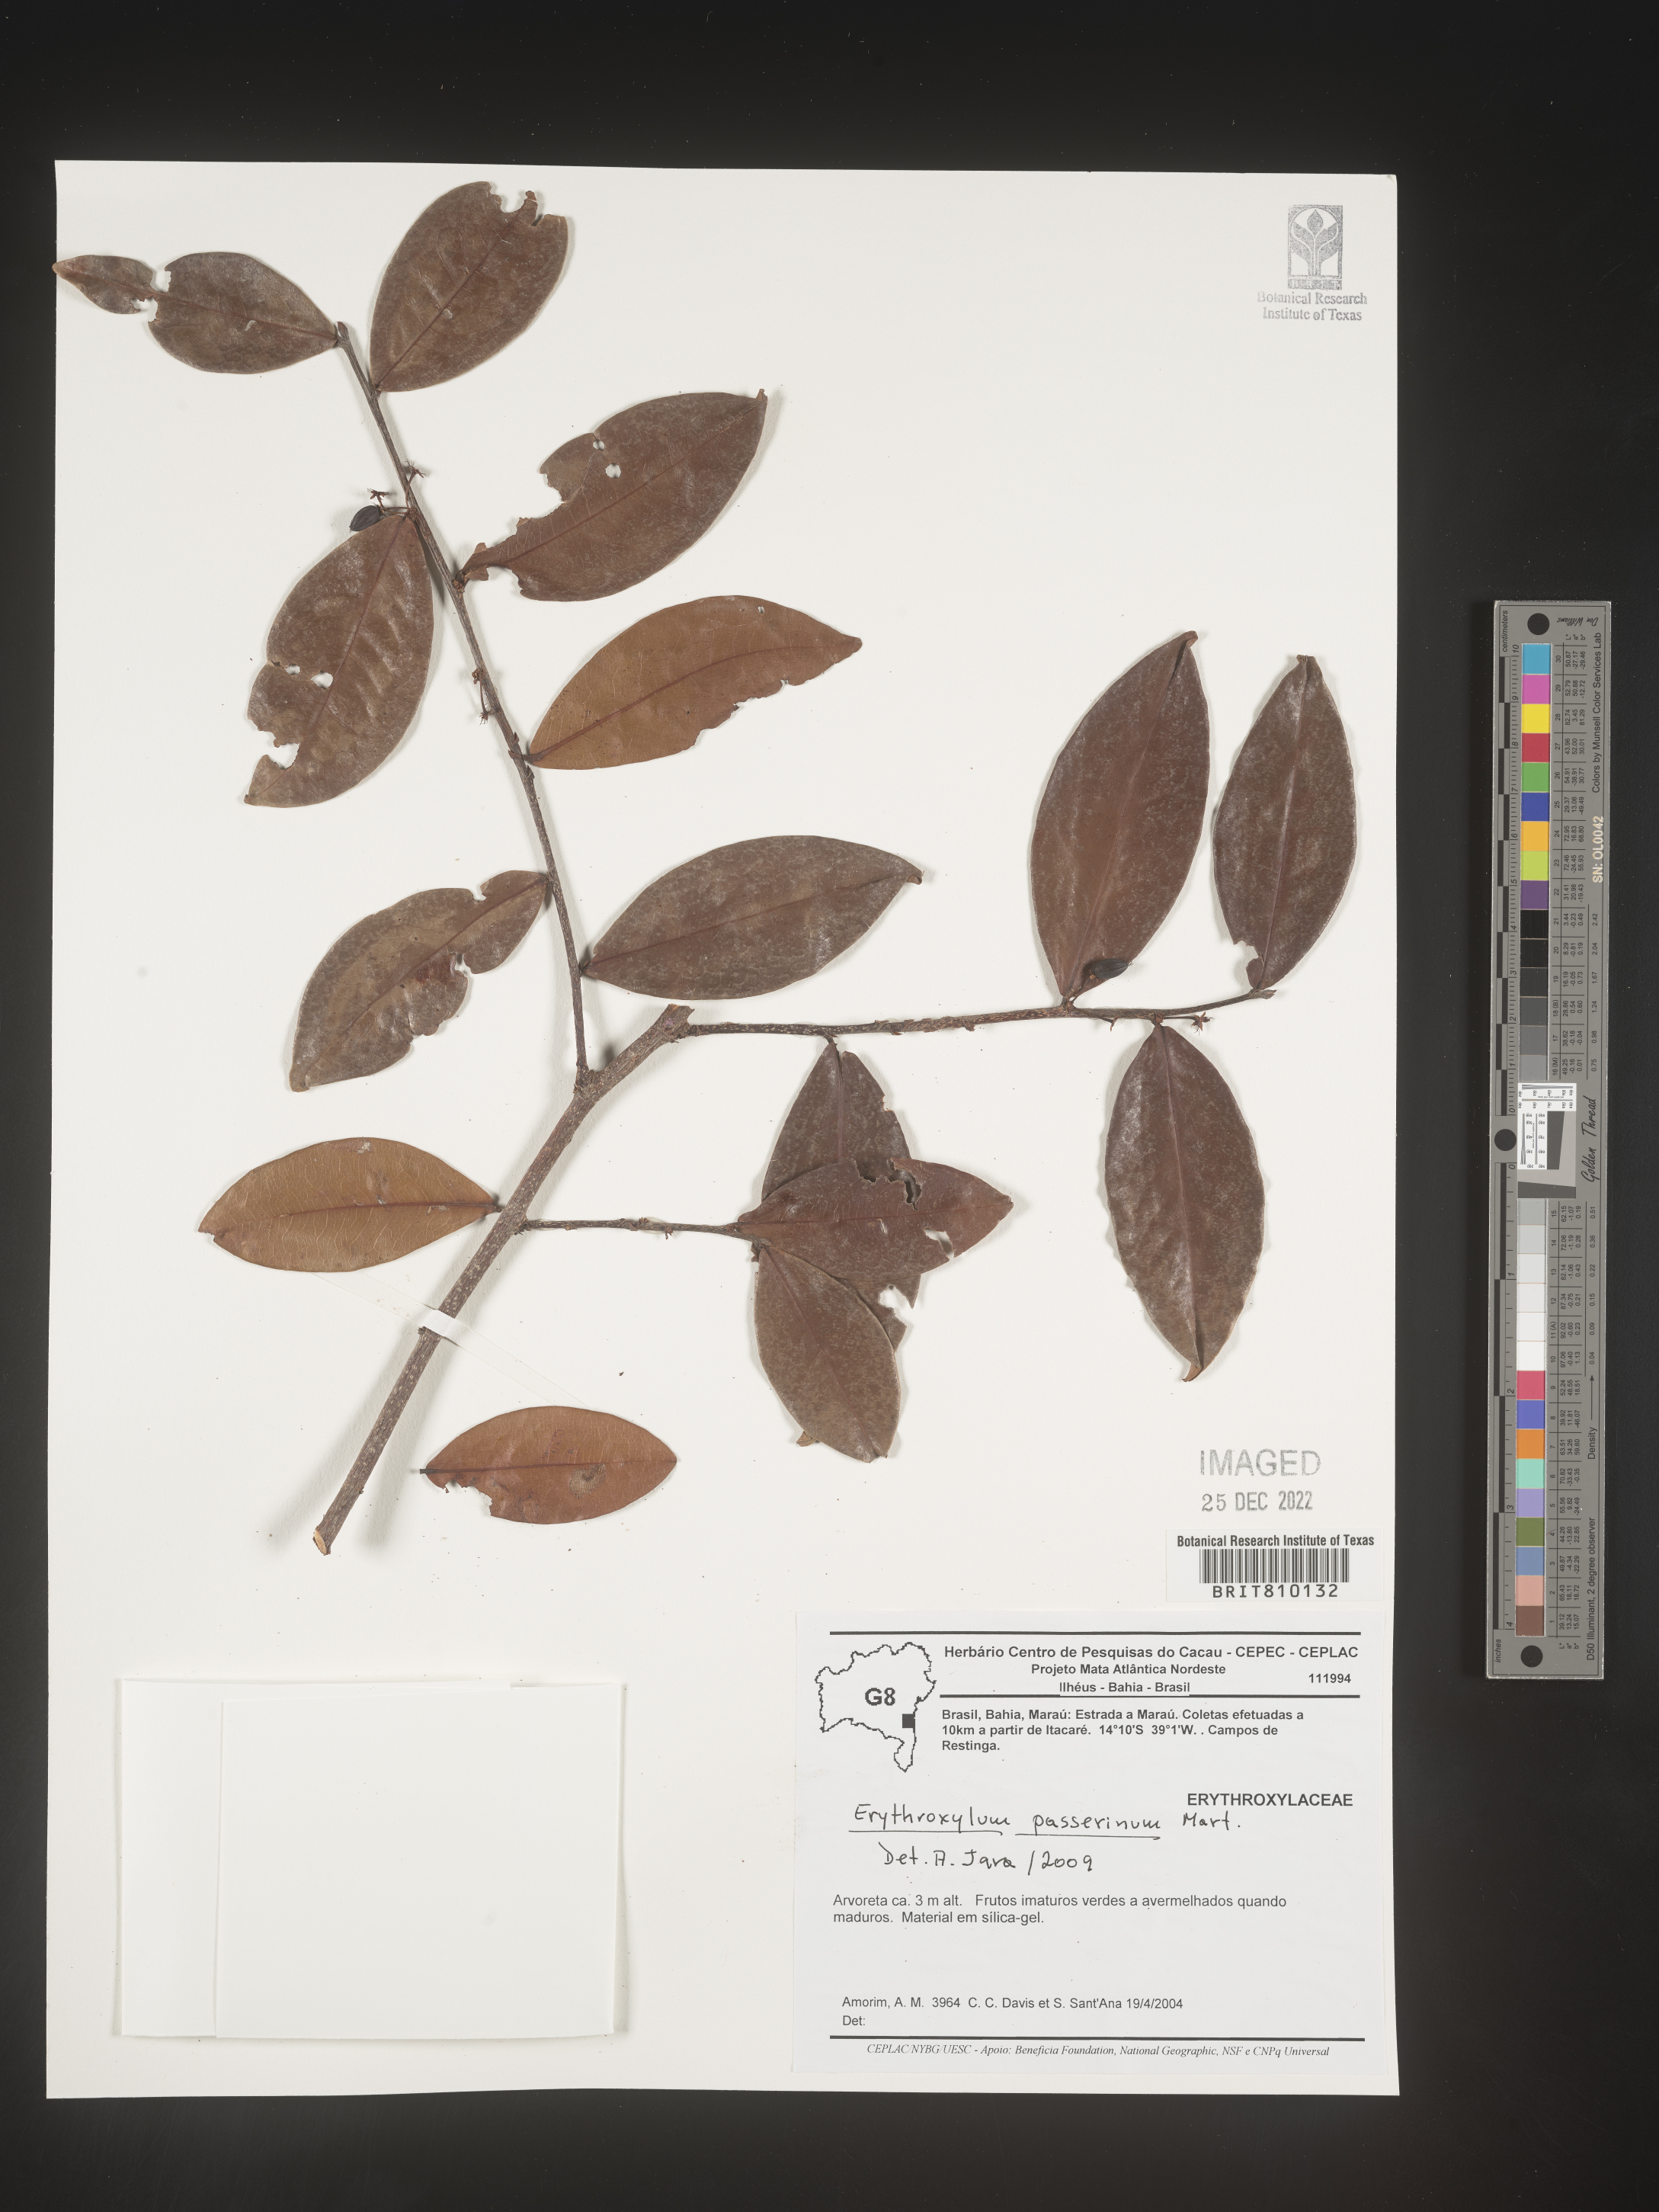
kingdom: Plantae
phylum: Tracheophyta
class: Magnoliopsida
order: Malpighiales
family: Erythroxylaceae
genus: Erythroxylum
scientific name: Erythroxylum
